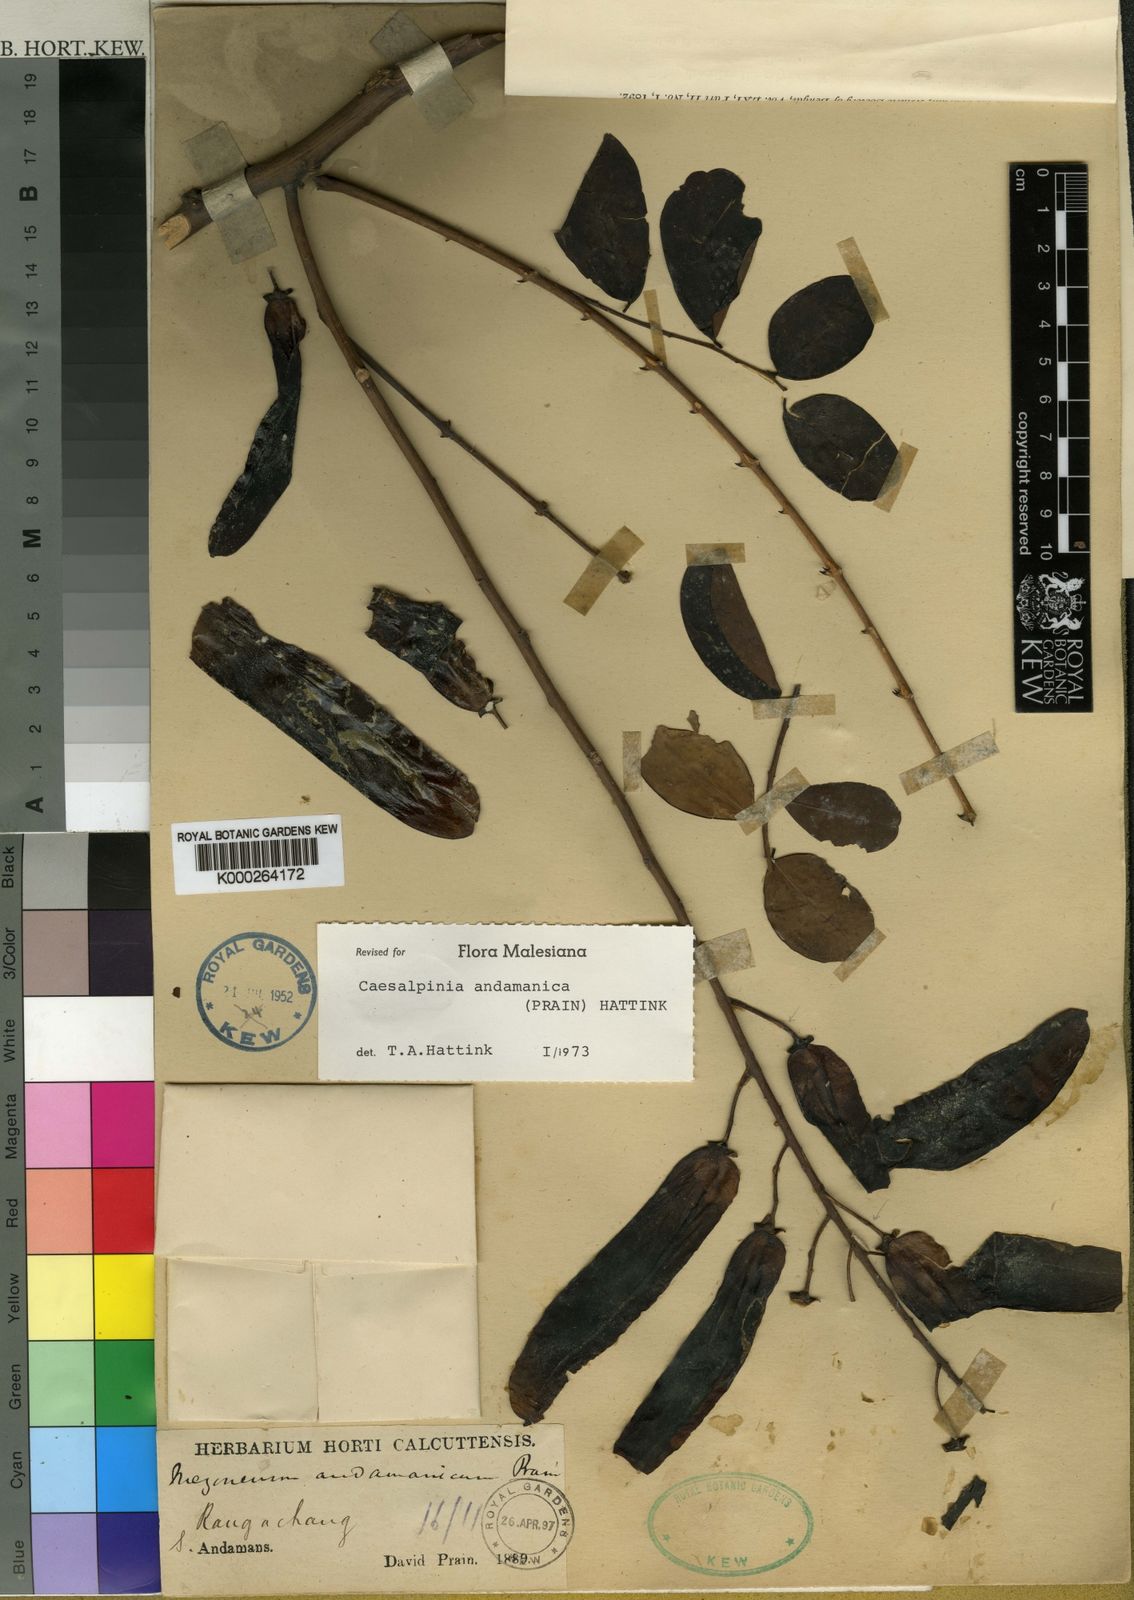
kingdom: Plantae
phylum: Tracheophyta
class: Magnoliopsida
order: Fabales
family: Fabaceae
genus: Mezoneuron
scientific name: Mezoneuron
